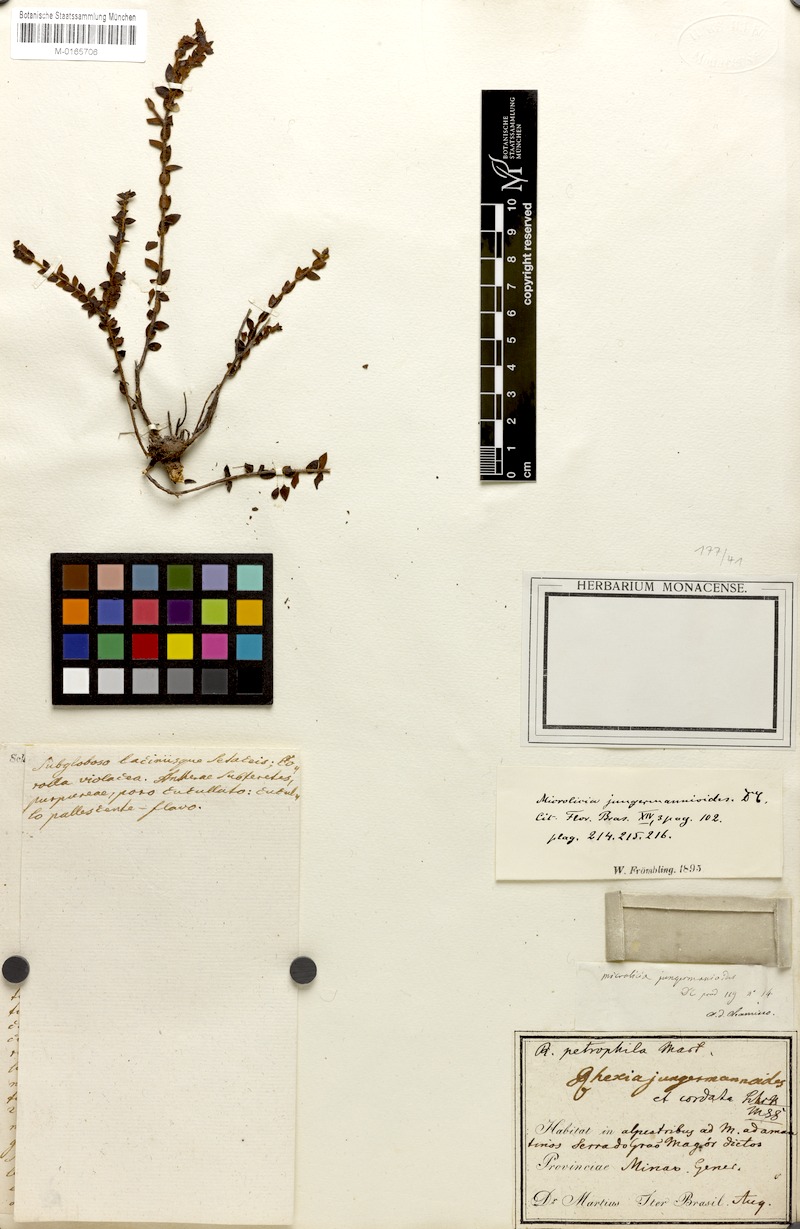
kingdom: Plantae
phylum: Tracheophyta
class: Magnoliopsida
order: Myrtales
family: Melastomataceae
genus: Microlicia
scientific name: Microlicia jungermannioides
